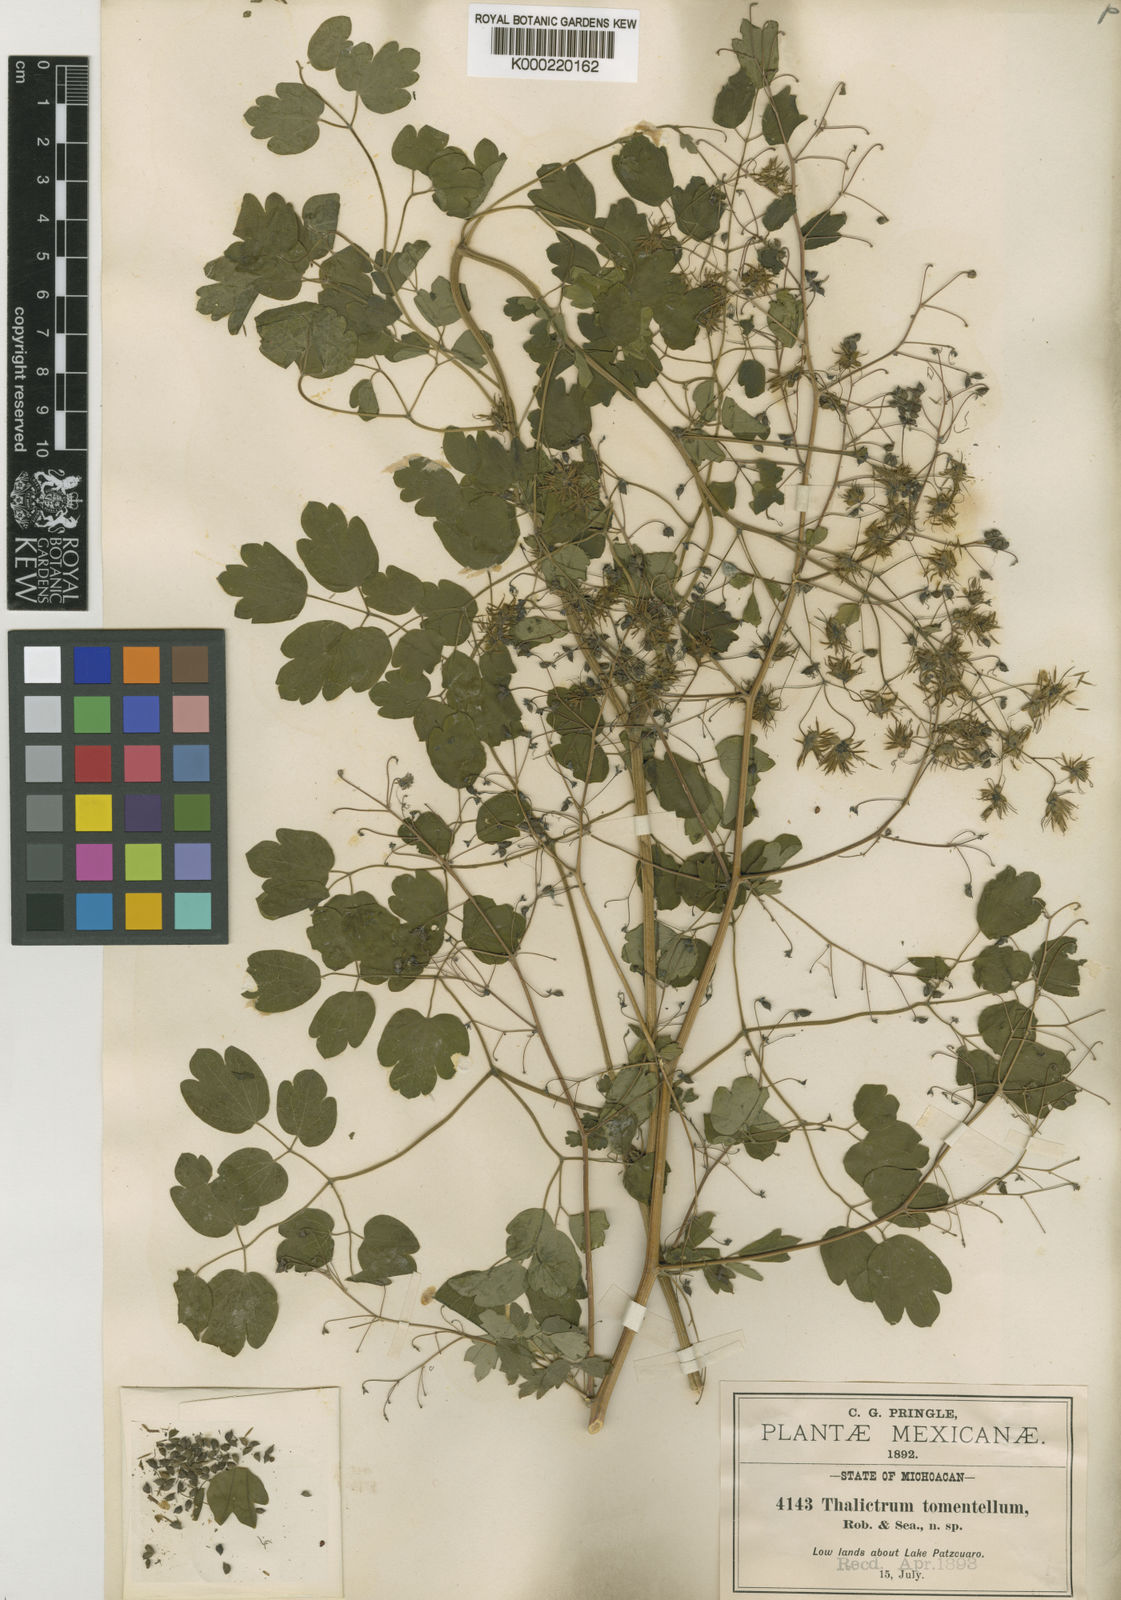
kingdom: Plantae
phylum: Tracheophyta
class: Magnoliopsida
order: Ranunculales
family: Ranunculaceae
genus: Thalictrum
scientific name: Thalictrum pubigerum
